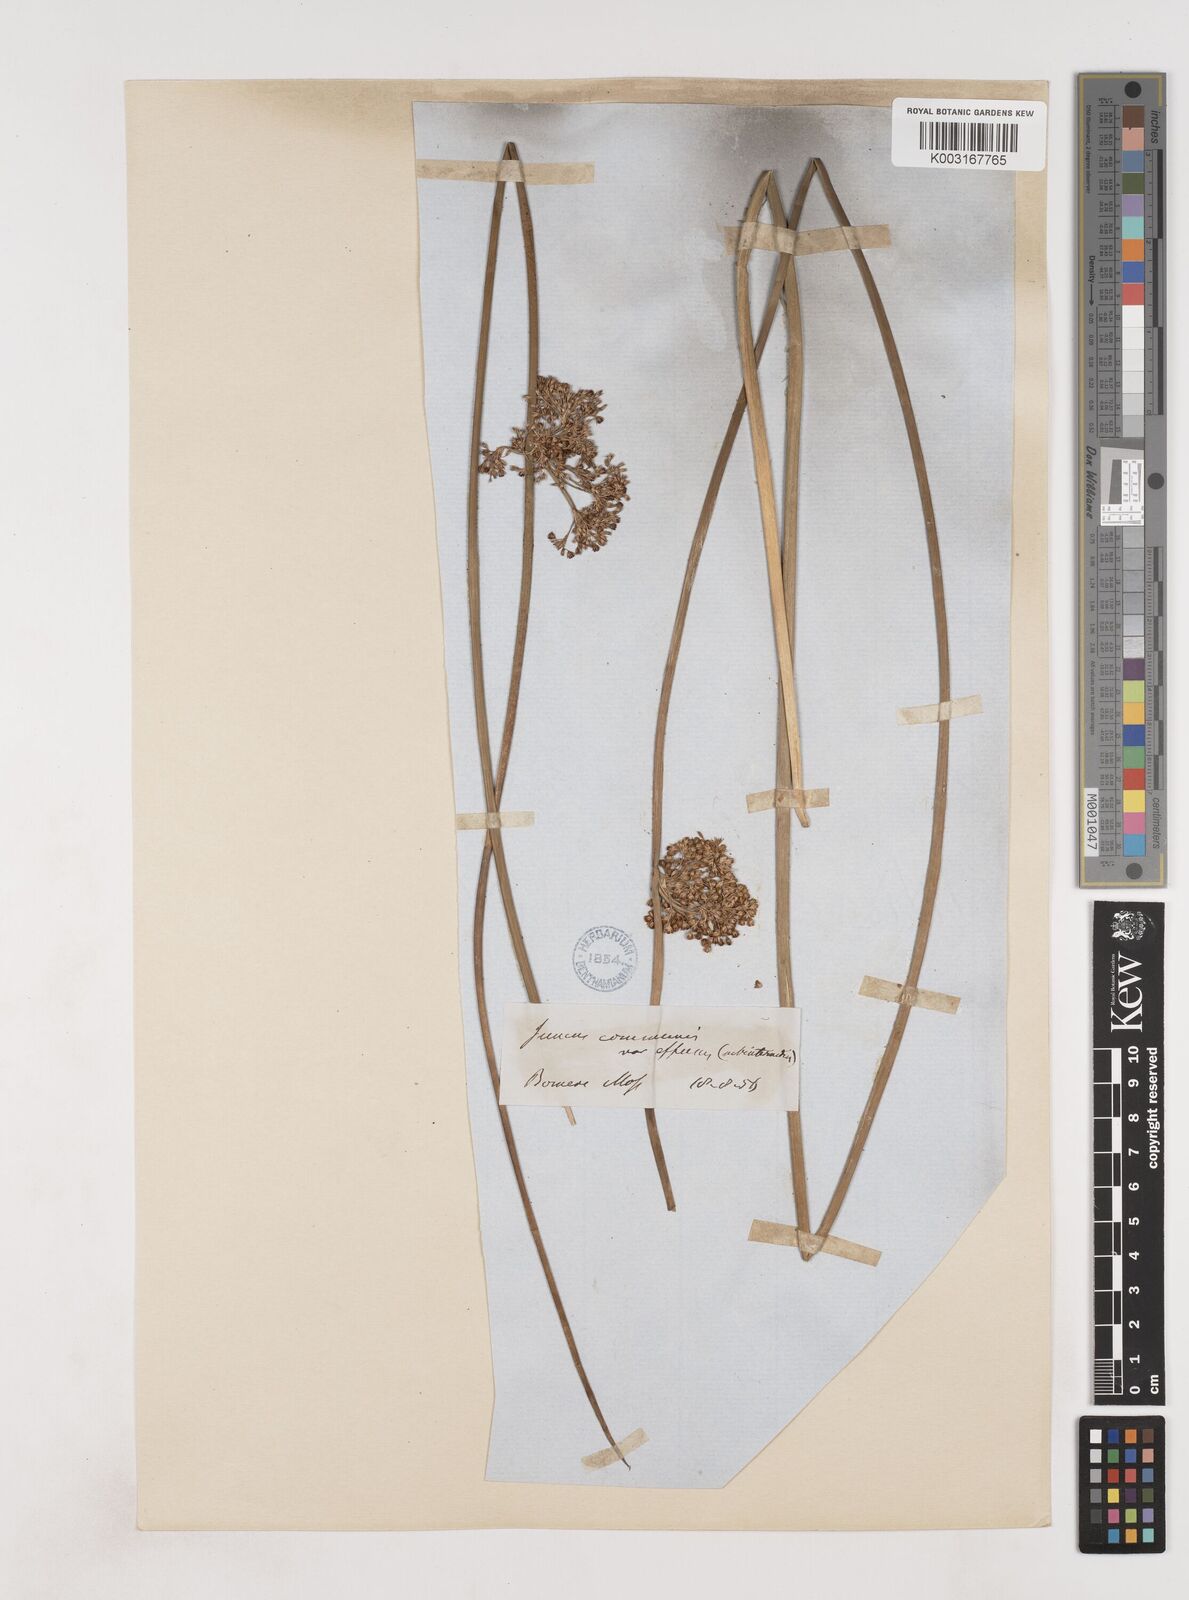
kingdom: Plantae
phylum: Tracheophyta
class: Liliopsida
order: Poales
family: Juncaceae
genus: Juncus
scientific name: Juncus effusus
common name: Soft rush
